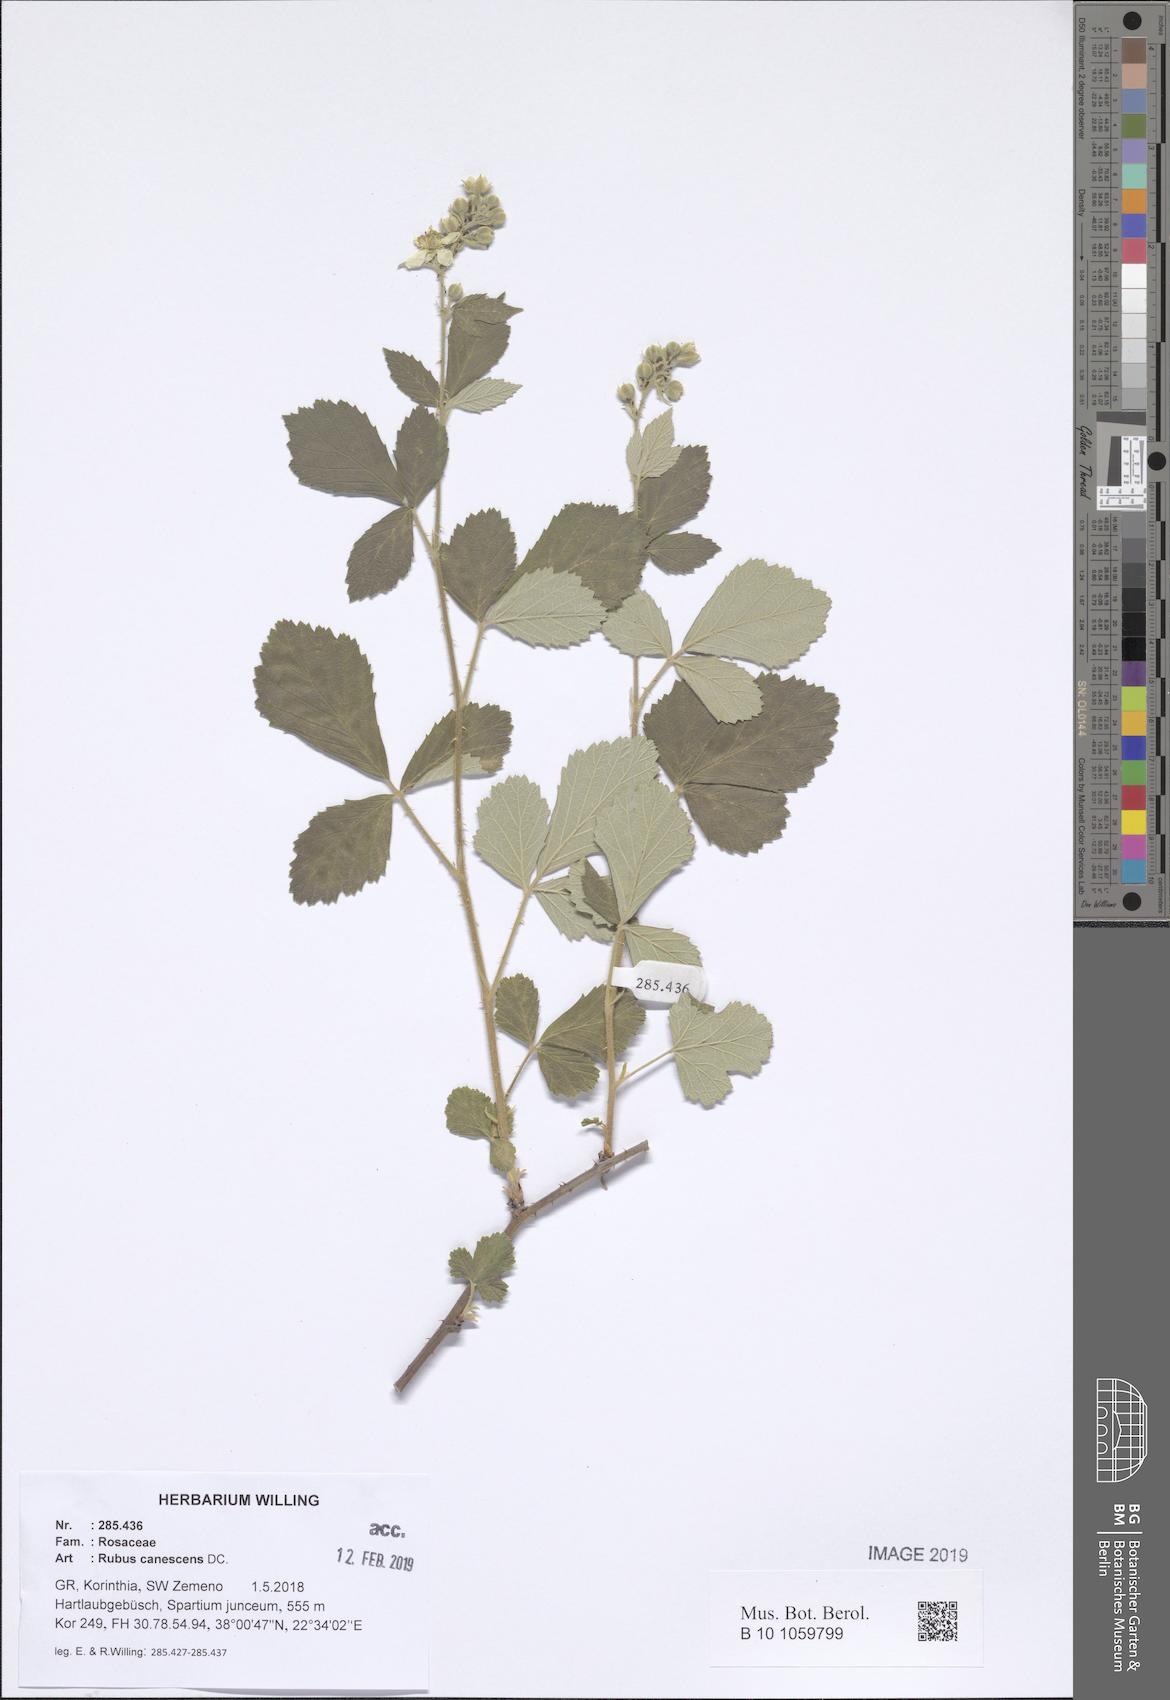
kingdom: Plantae
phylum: Tracheophyta
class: Magnoliopsida
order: Rosales
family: Rosaceae
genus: Rubus
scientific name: Rubus canescens
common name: Wooly blackberry
